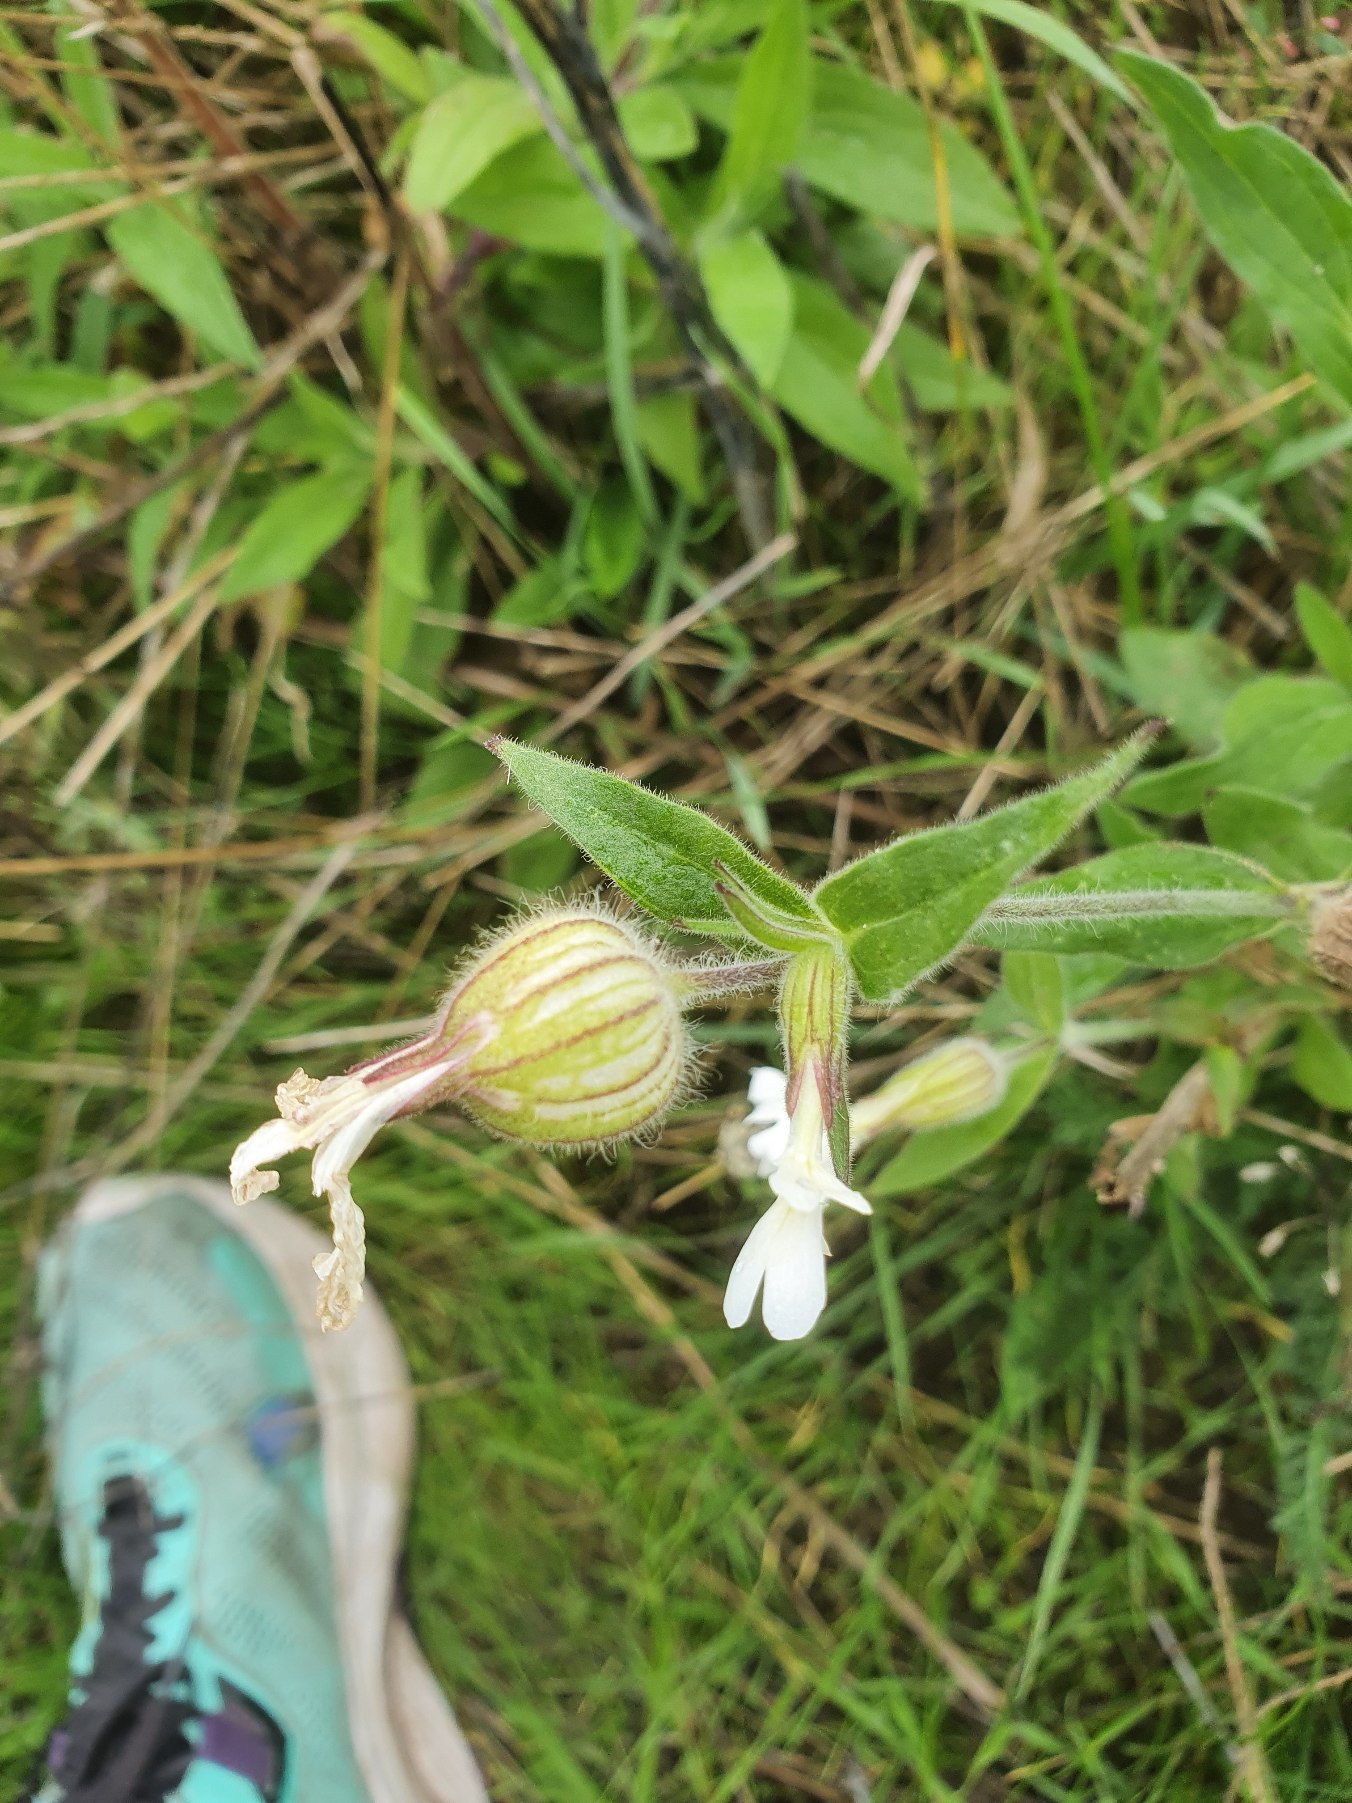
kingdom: Plantae
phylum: Tracheophyta
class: Magnoliopsida
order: Caryophyllales
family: Caryophyllaceae
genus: Silene
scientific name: Silene latifolia
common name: Aftenpragtstjerne
